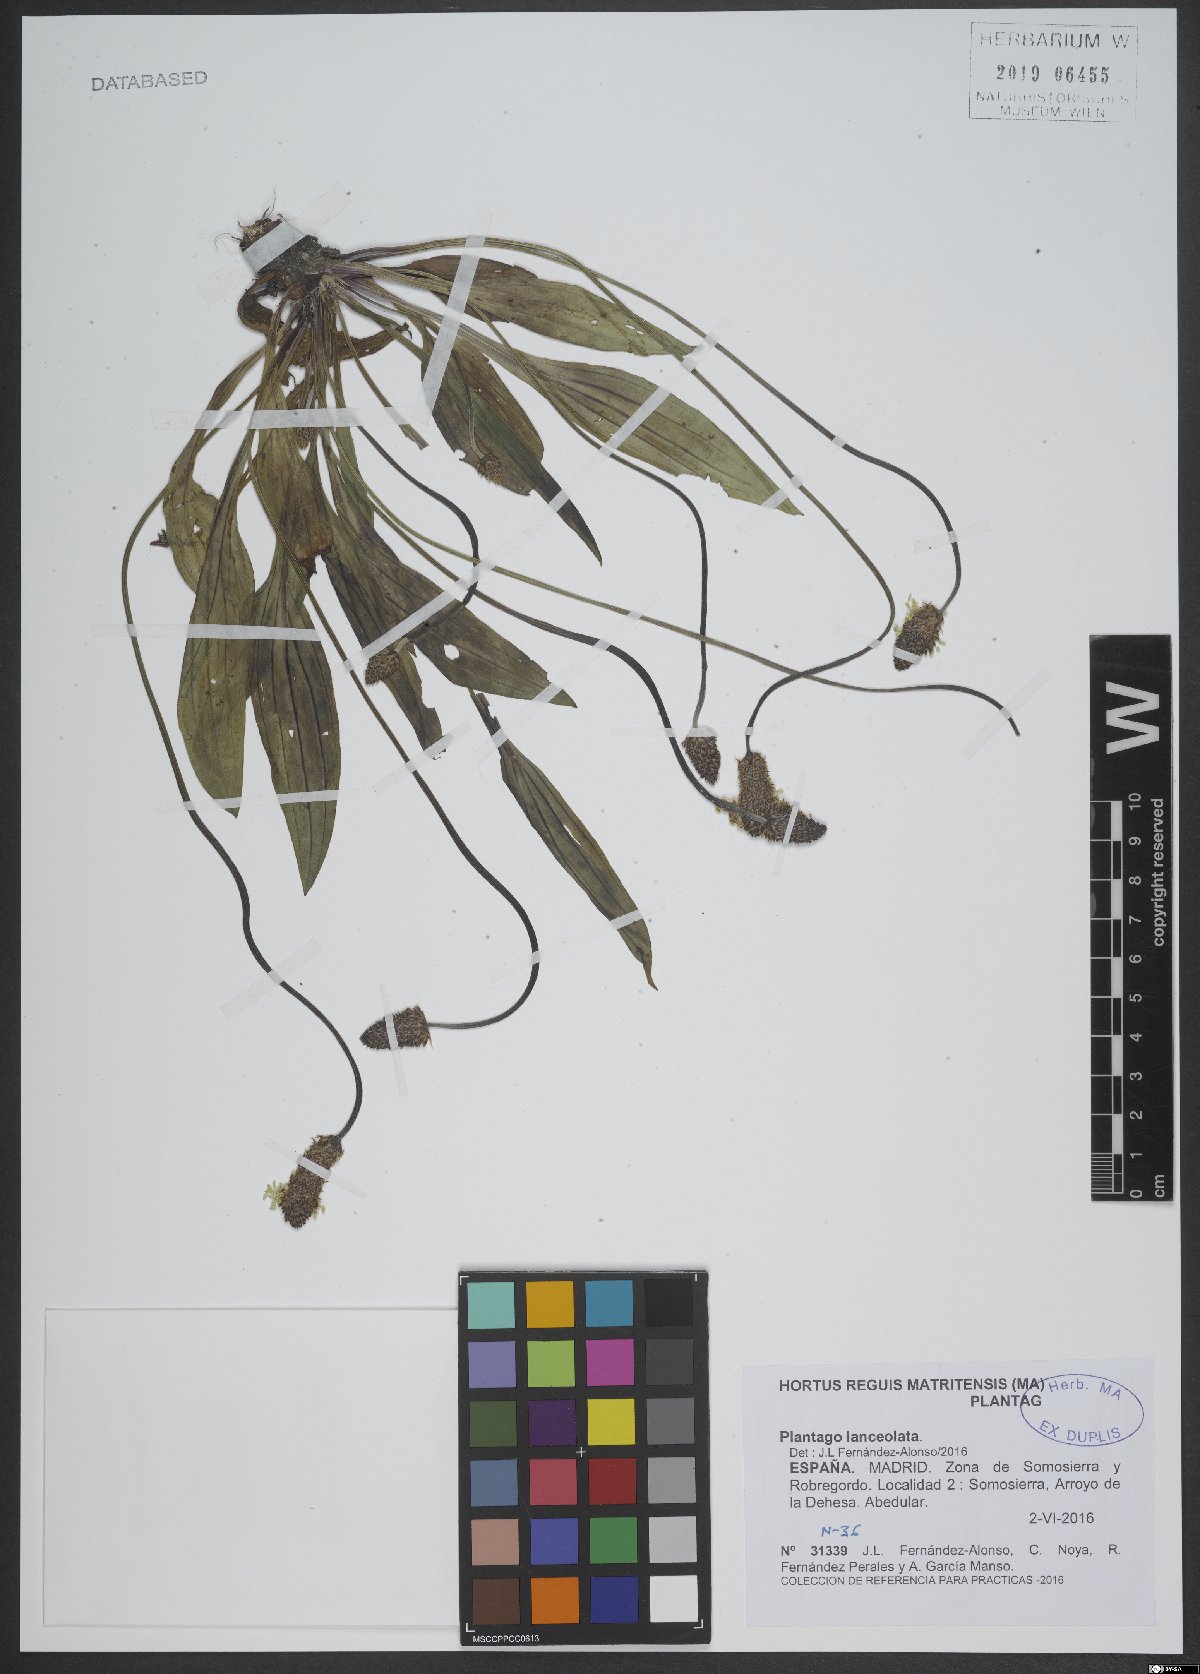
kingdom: Plantae
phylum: Tracheophyta
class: Magnoliopsida
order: Lamiales
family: Plantaginaceae
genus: Plantago
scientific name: Plantago lanceolata
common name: Ribwort plantain
